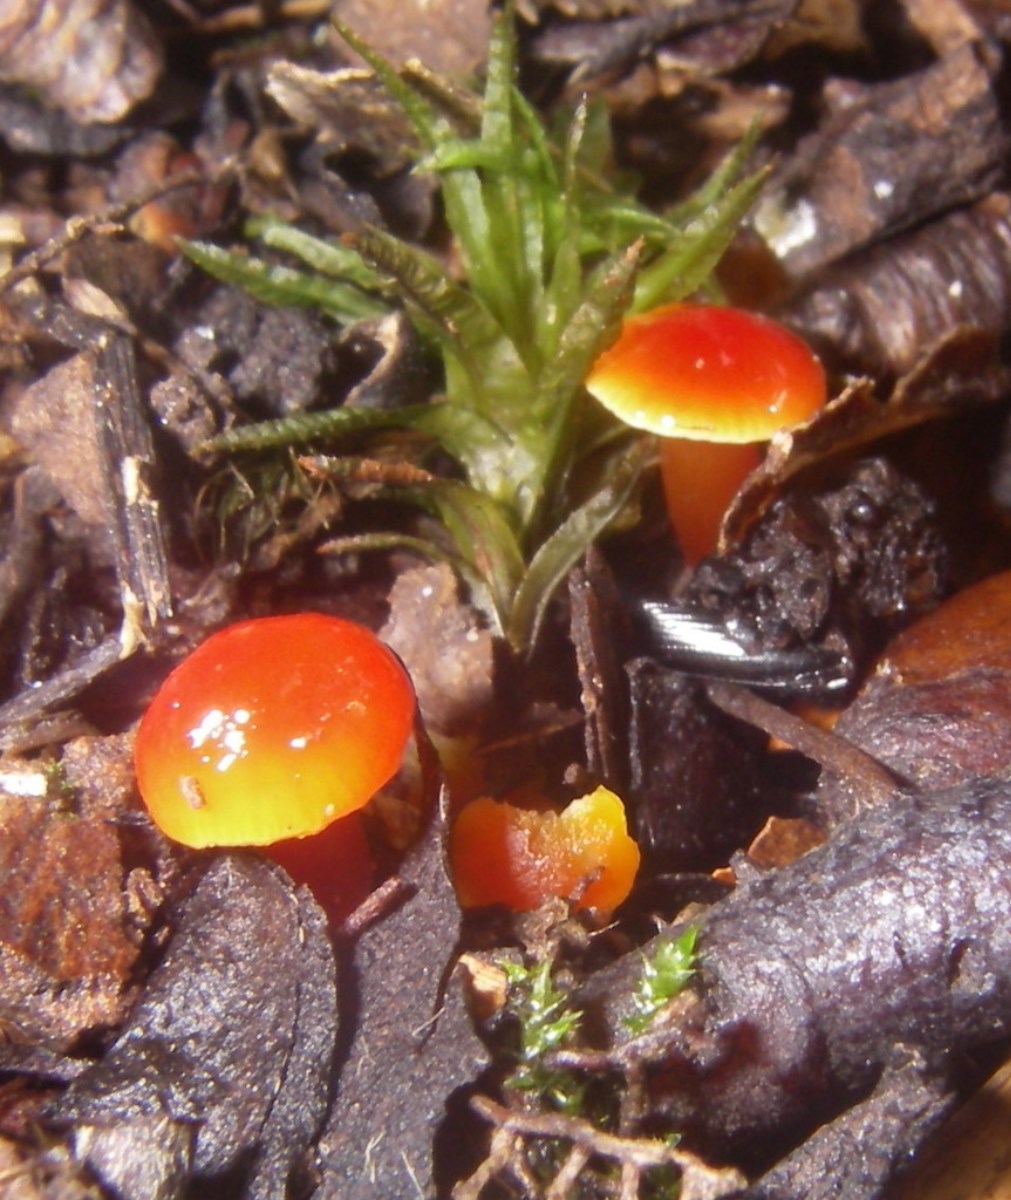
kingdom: Fungi
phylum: Basidiomycota
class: Agaricomycetes
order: Agaricales
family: Hygrophoraceae
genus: Hygrocybe
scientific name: Hygrocybe insipida
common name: liden vokshat
